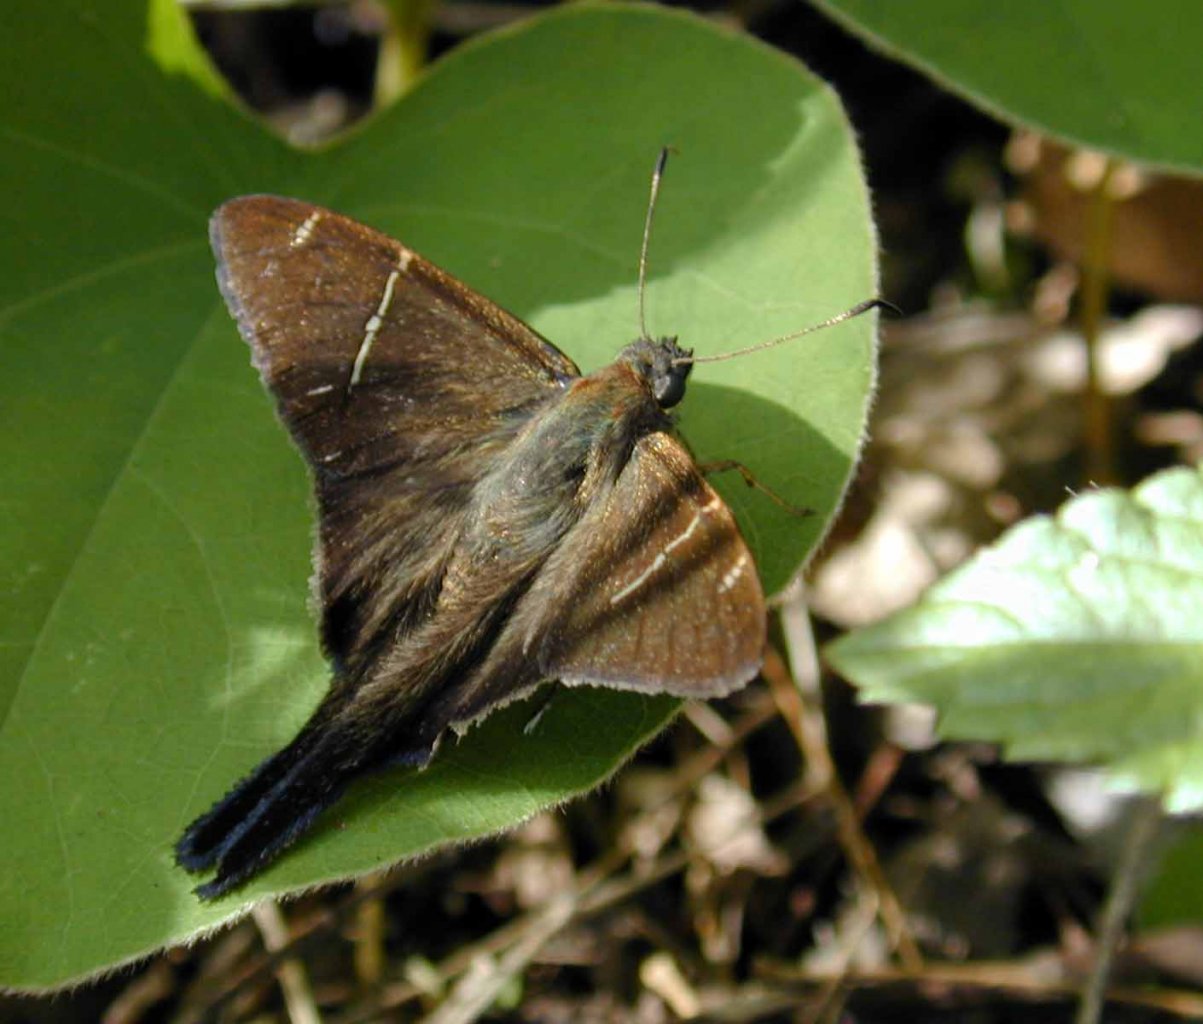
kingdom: Animalia
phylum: Arthropoda
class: Insecta
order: Lepidoptera
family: Hesperiidae
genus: Urbanus
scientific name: Urbanus teleus
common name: Teleus Longtail
